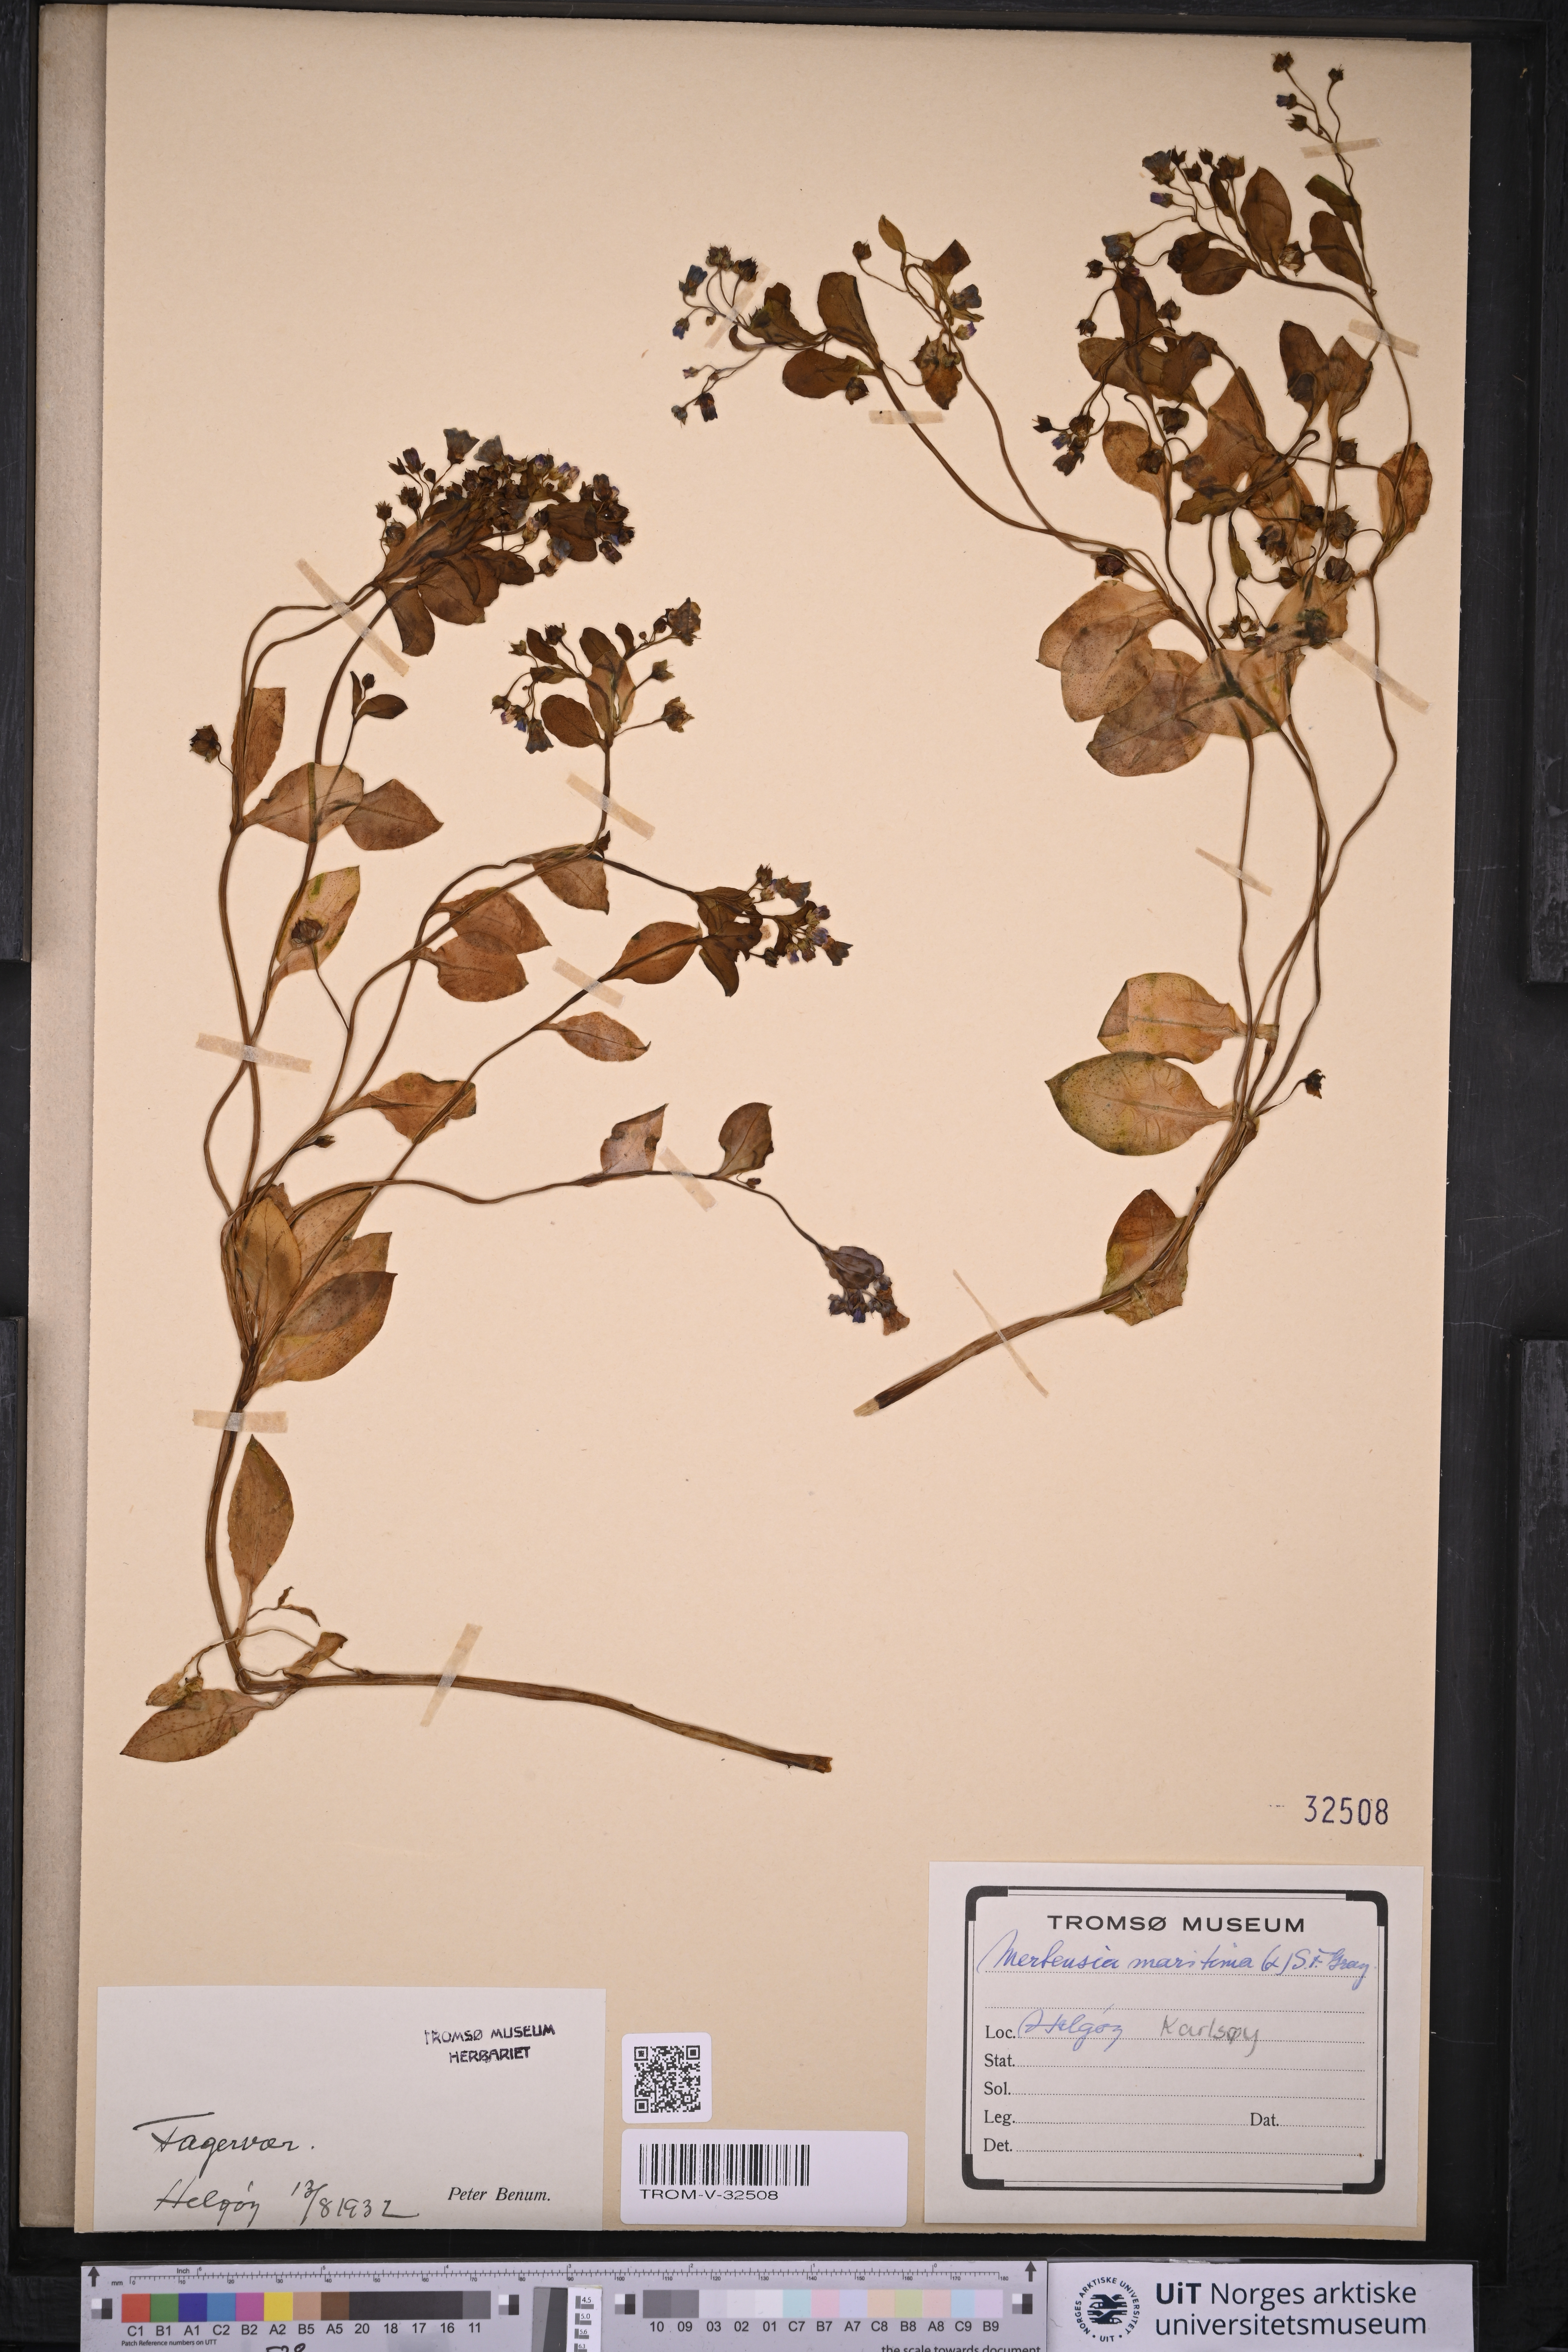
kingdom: Plantae
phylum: Tracheophyta
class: Magnoliopsida
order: Boraginales
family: Boraginaceae
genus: Mertensia
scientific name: Mertensia maritima
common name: Oysterplant
